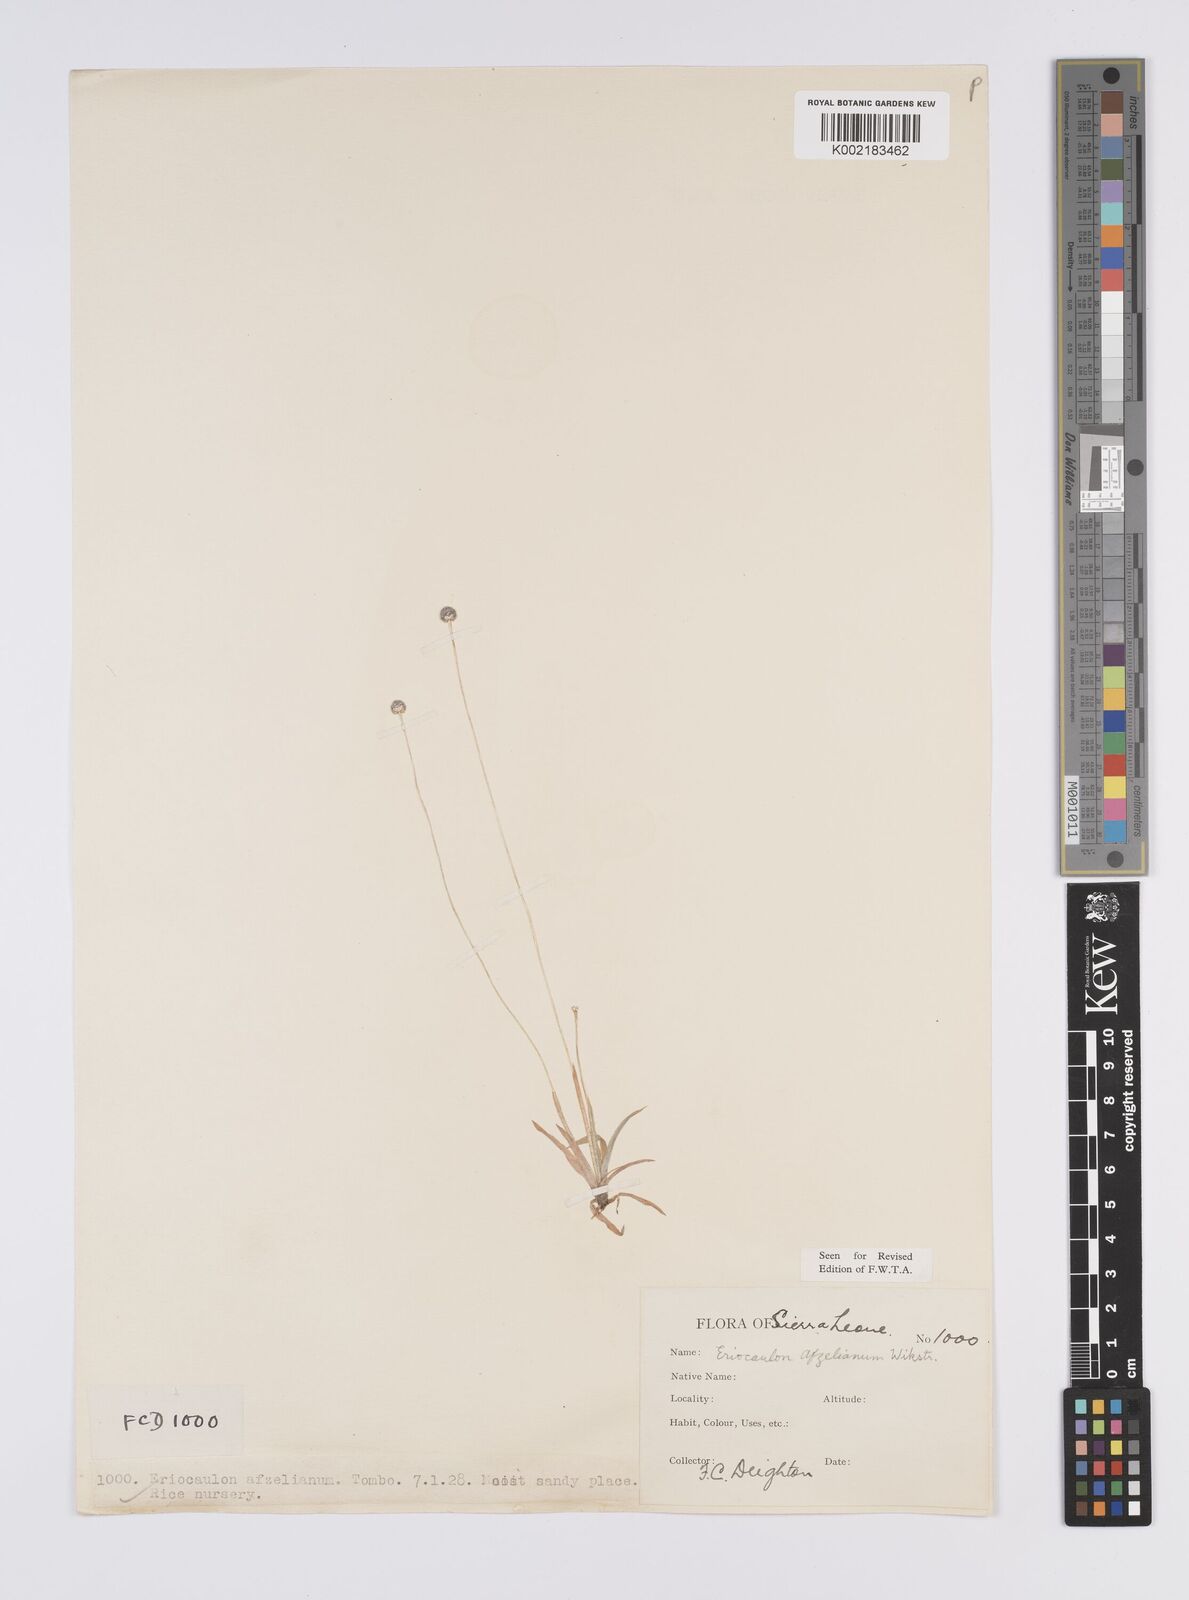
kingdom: Plantae
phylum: Tracheophyta
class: Liliopsida
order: Poales
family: Eriocaulaceae
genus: Eriocaulon
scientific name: Eriocaulon afzelianum
